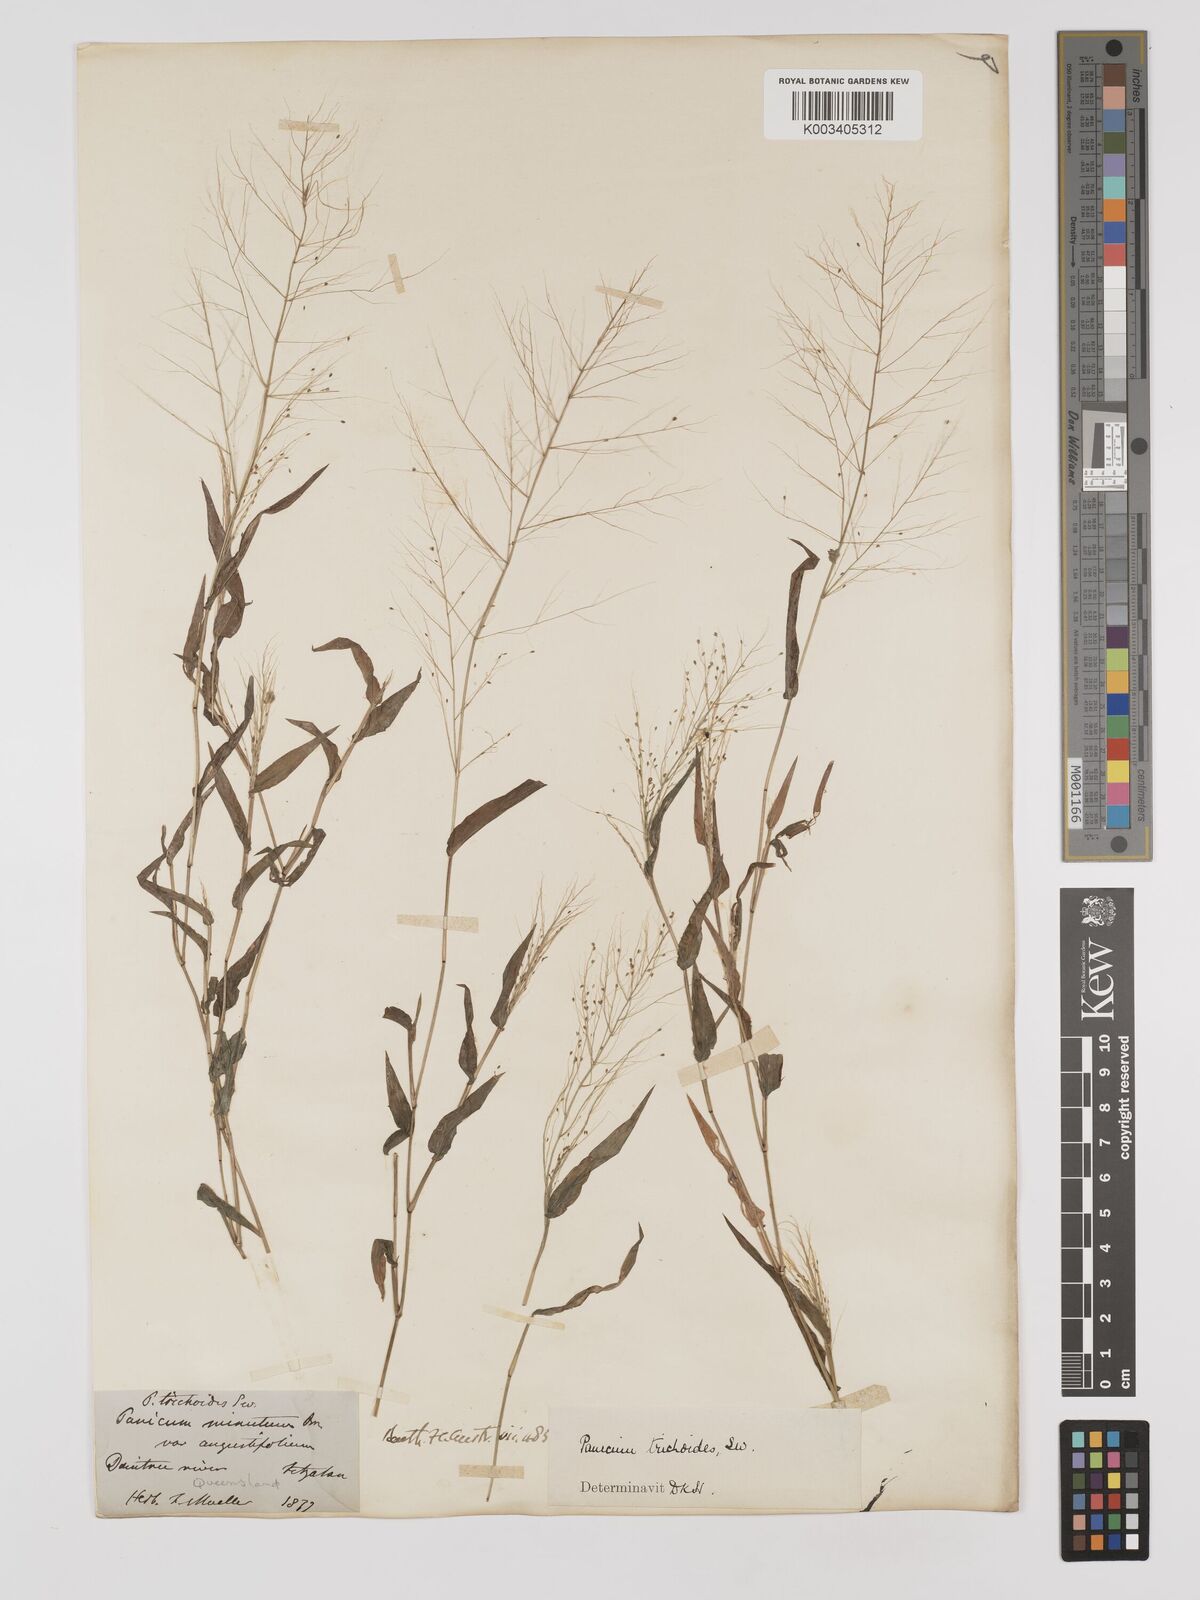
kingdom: Plantae
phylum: Tracheophyta
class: Liliopsida
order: Poales
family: Poaceae
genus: Panicum
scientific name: Panicum trichoides
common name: Tickle grass
